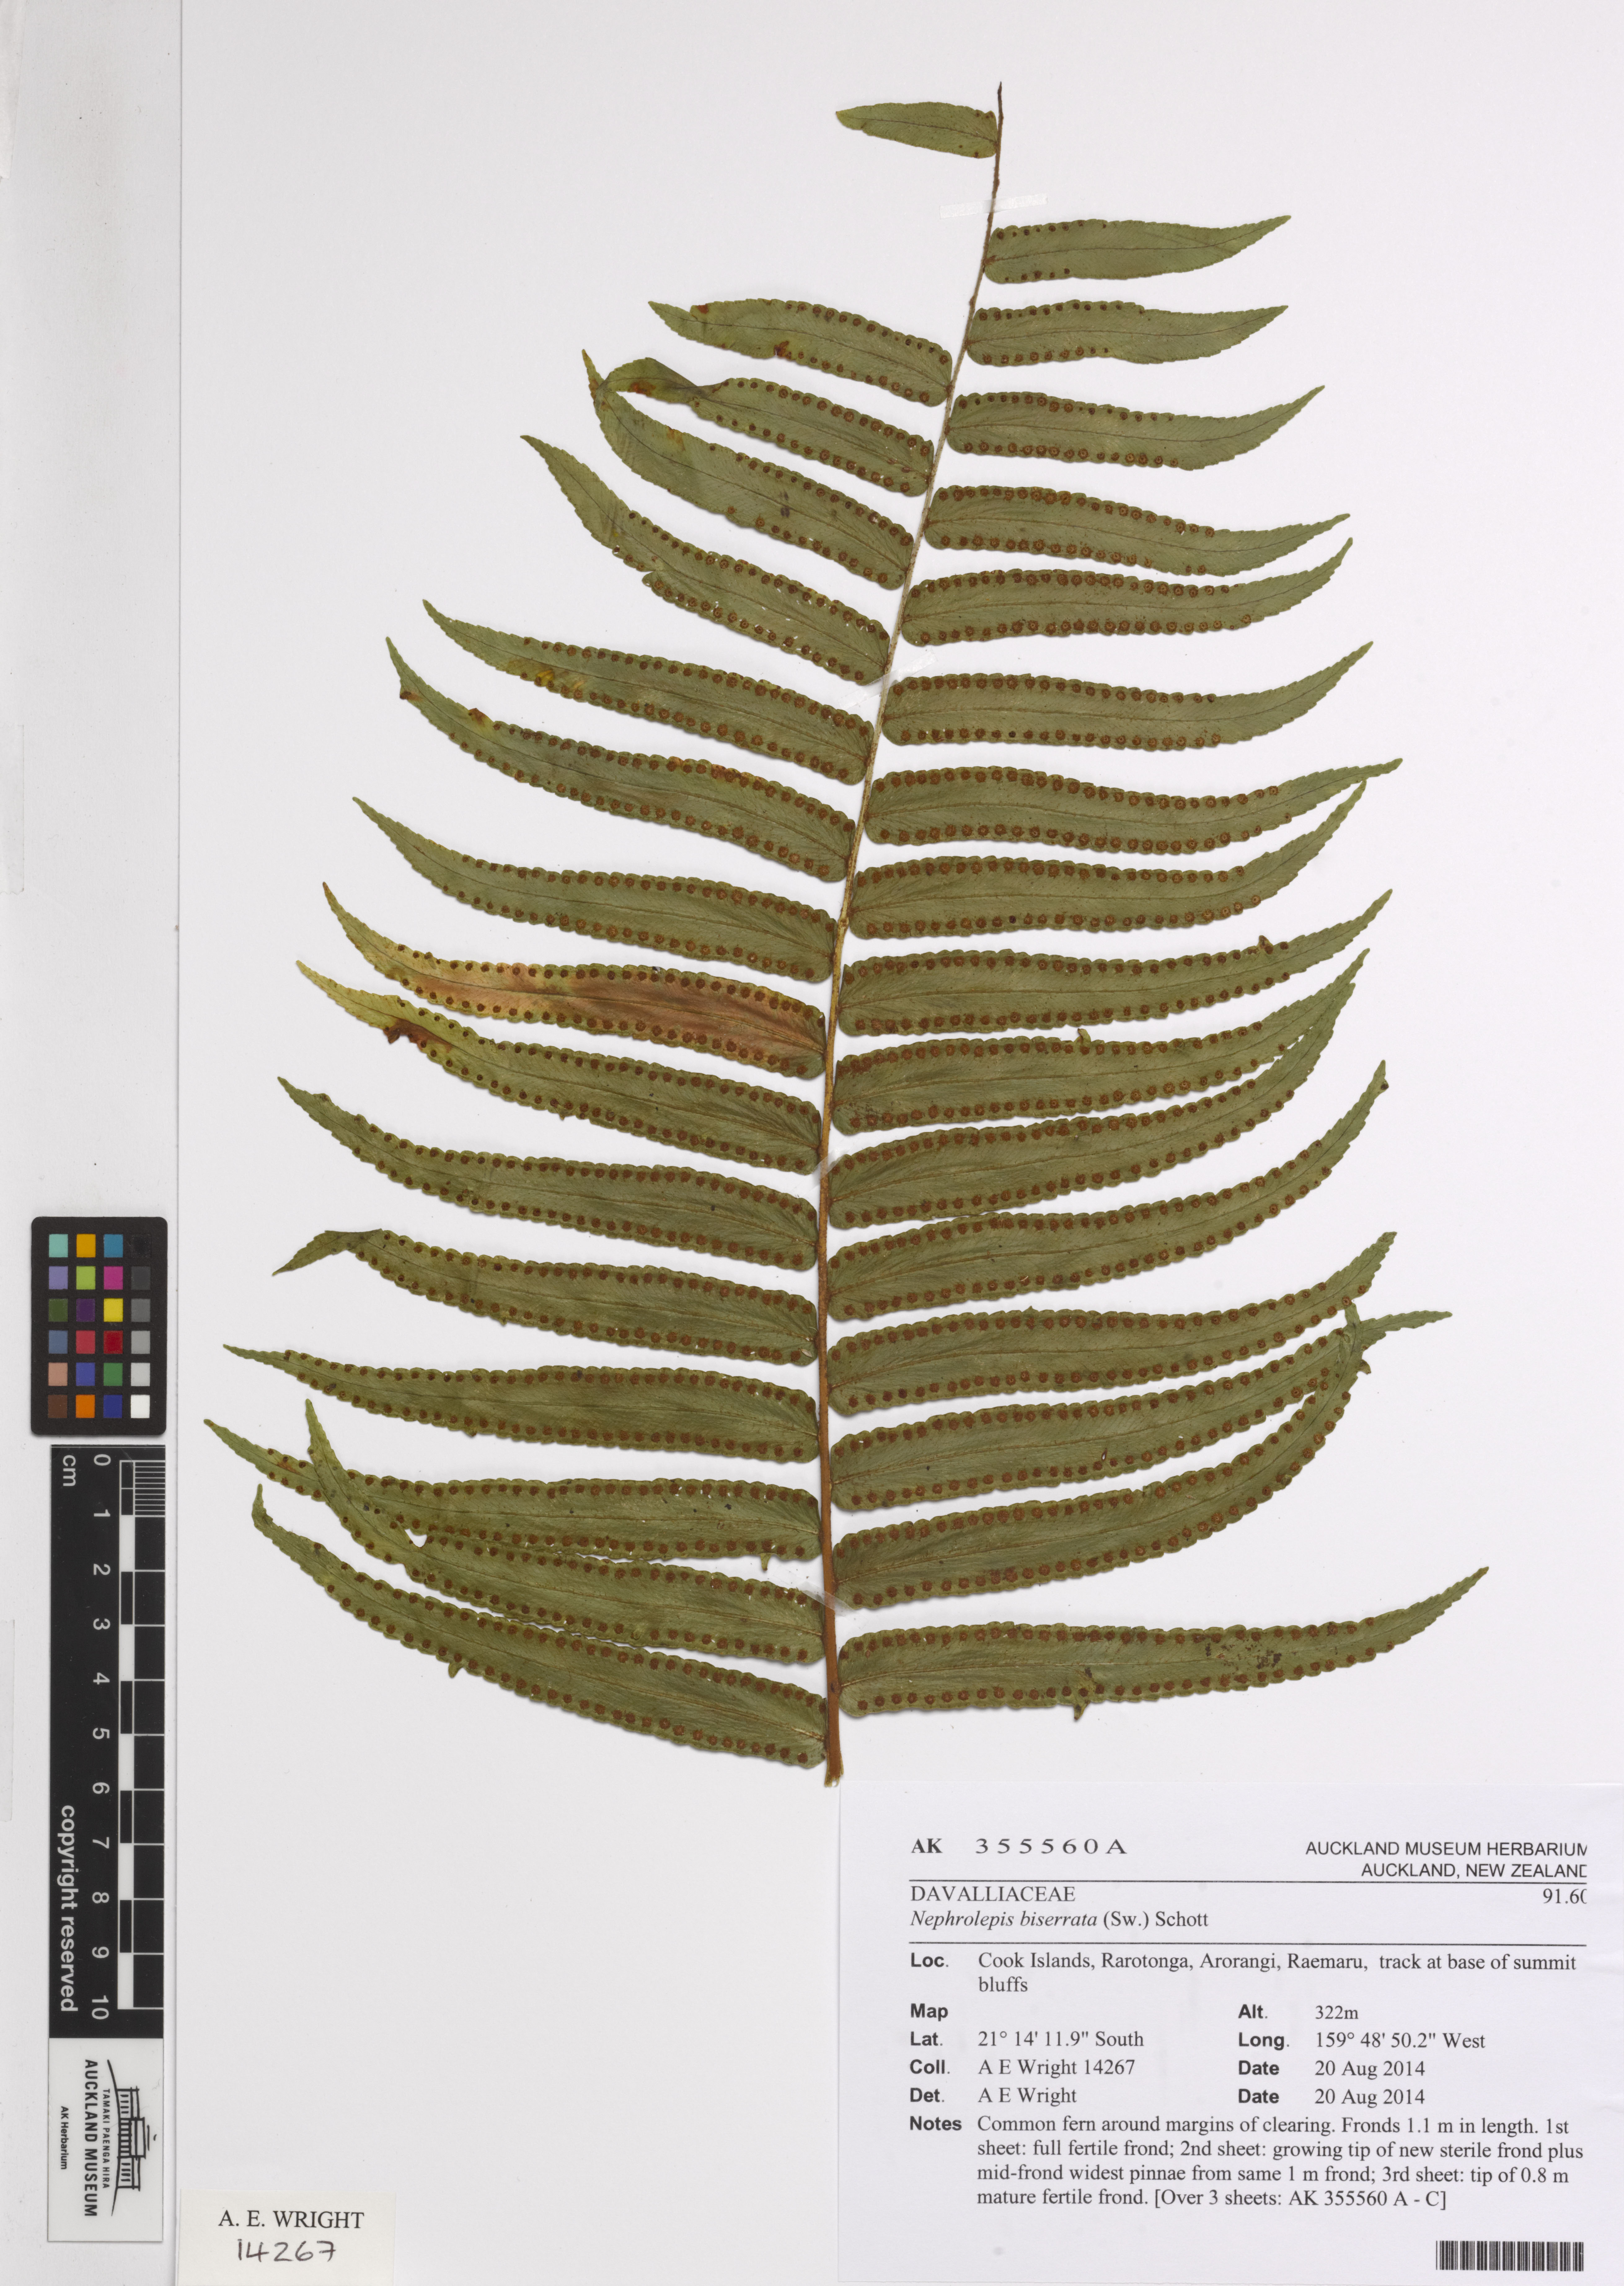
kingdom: Plantae
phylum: Tracheophyta
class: Polypodiopsida
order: Polypodiales
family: Nephrolepidaceae
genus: Nephrolepis
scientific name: Nephrolepis biserrata
